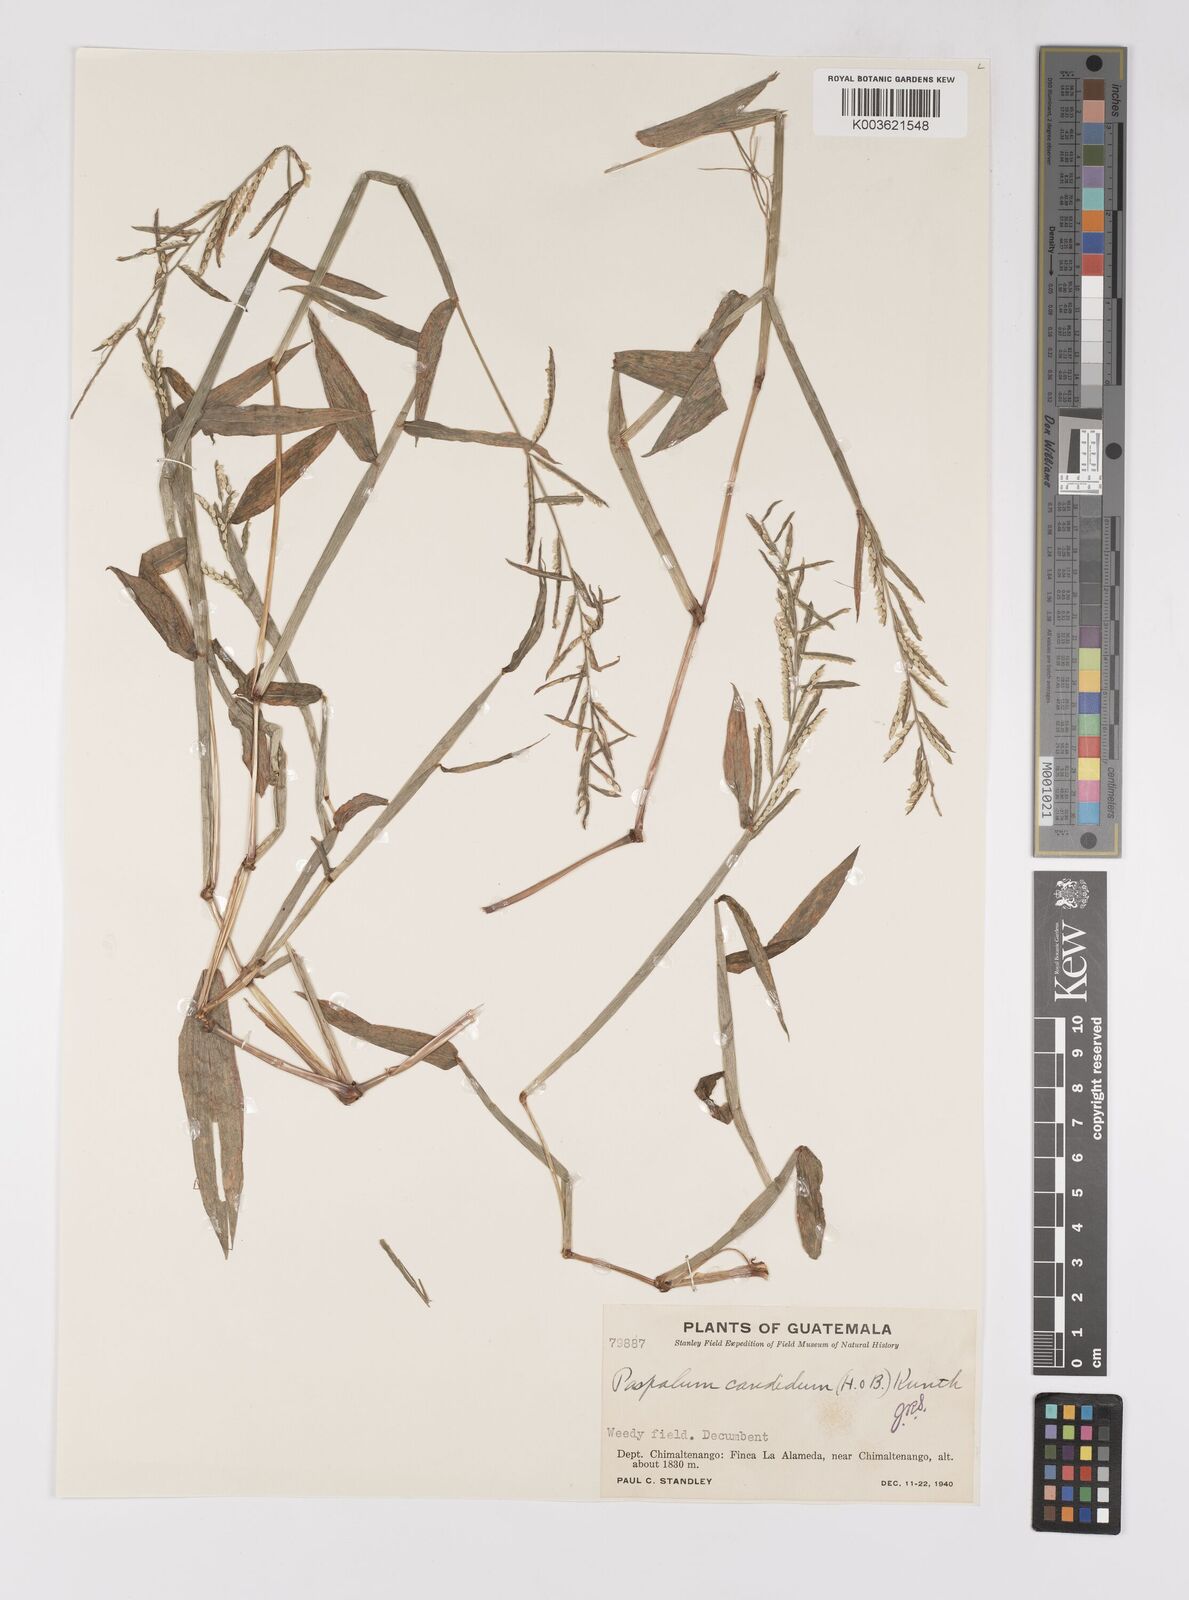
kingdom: Plantae
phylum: Tracheophyta
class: Liliopsida
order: Poales
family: Poaceae
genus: Paspalum
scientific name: Paspalum candidum
